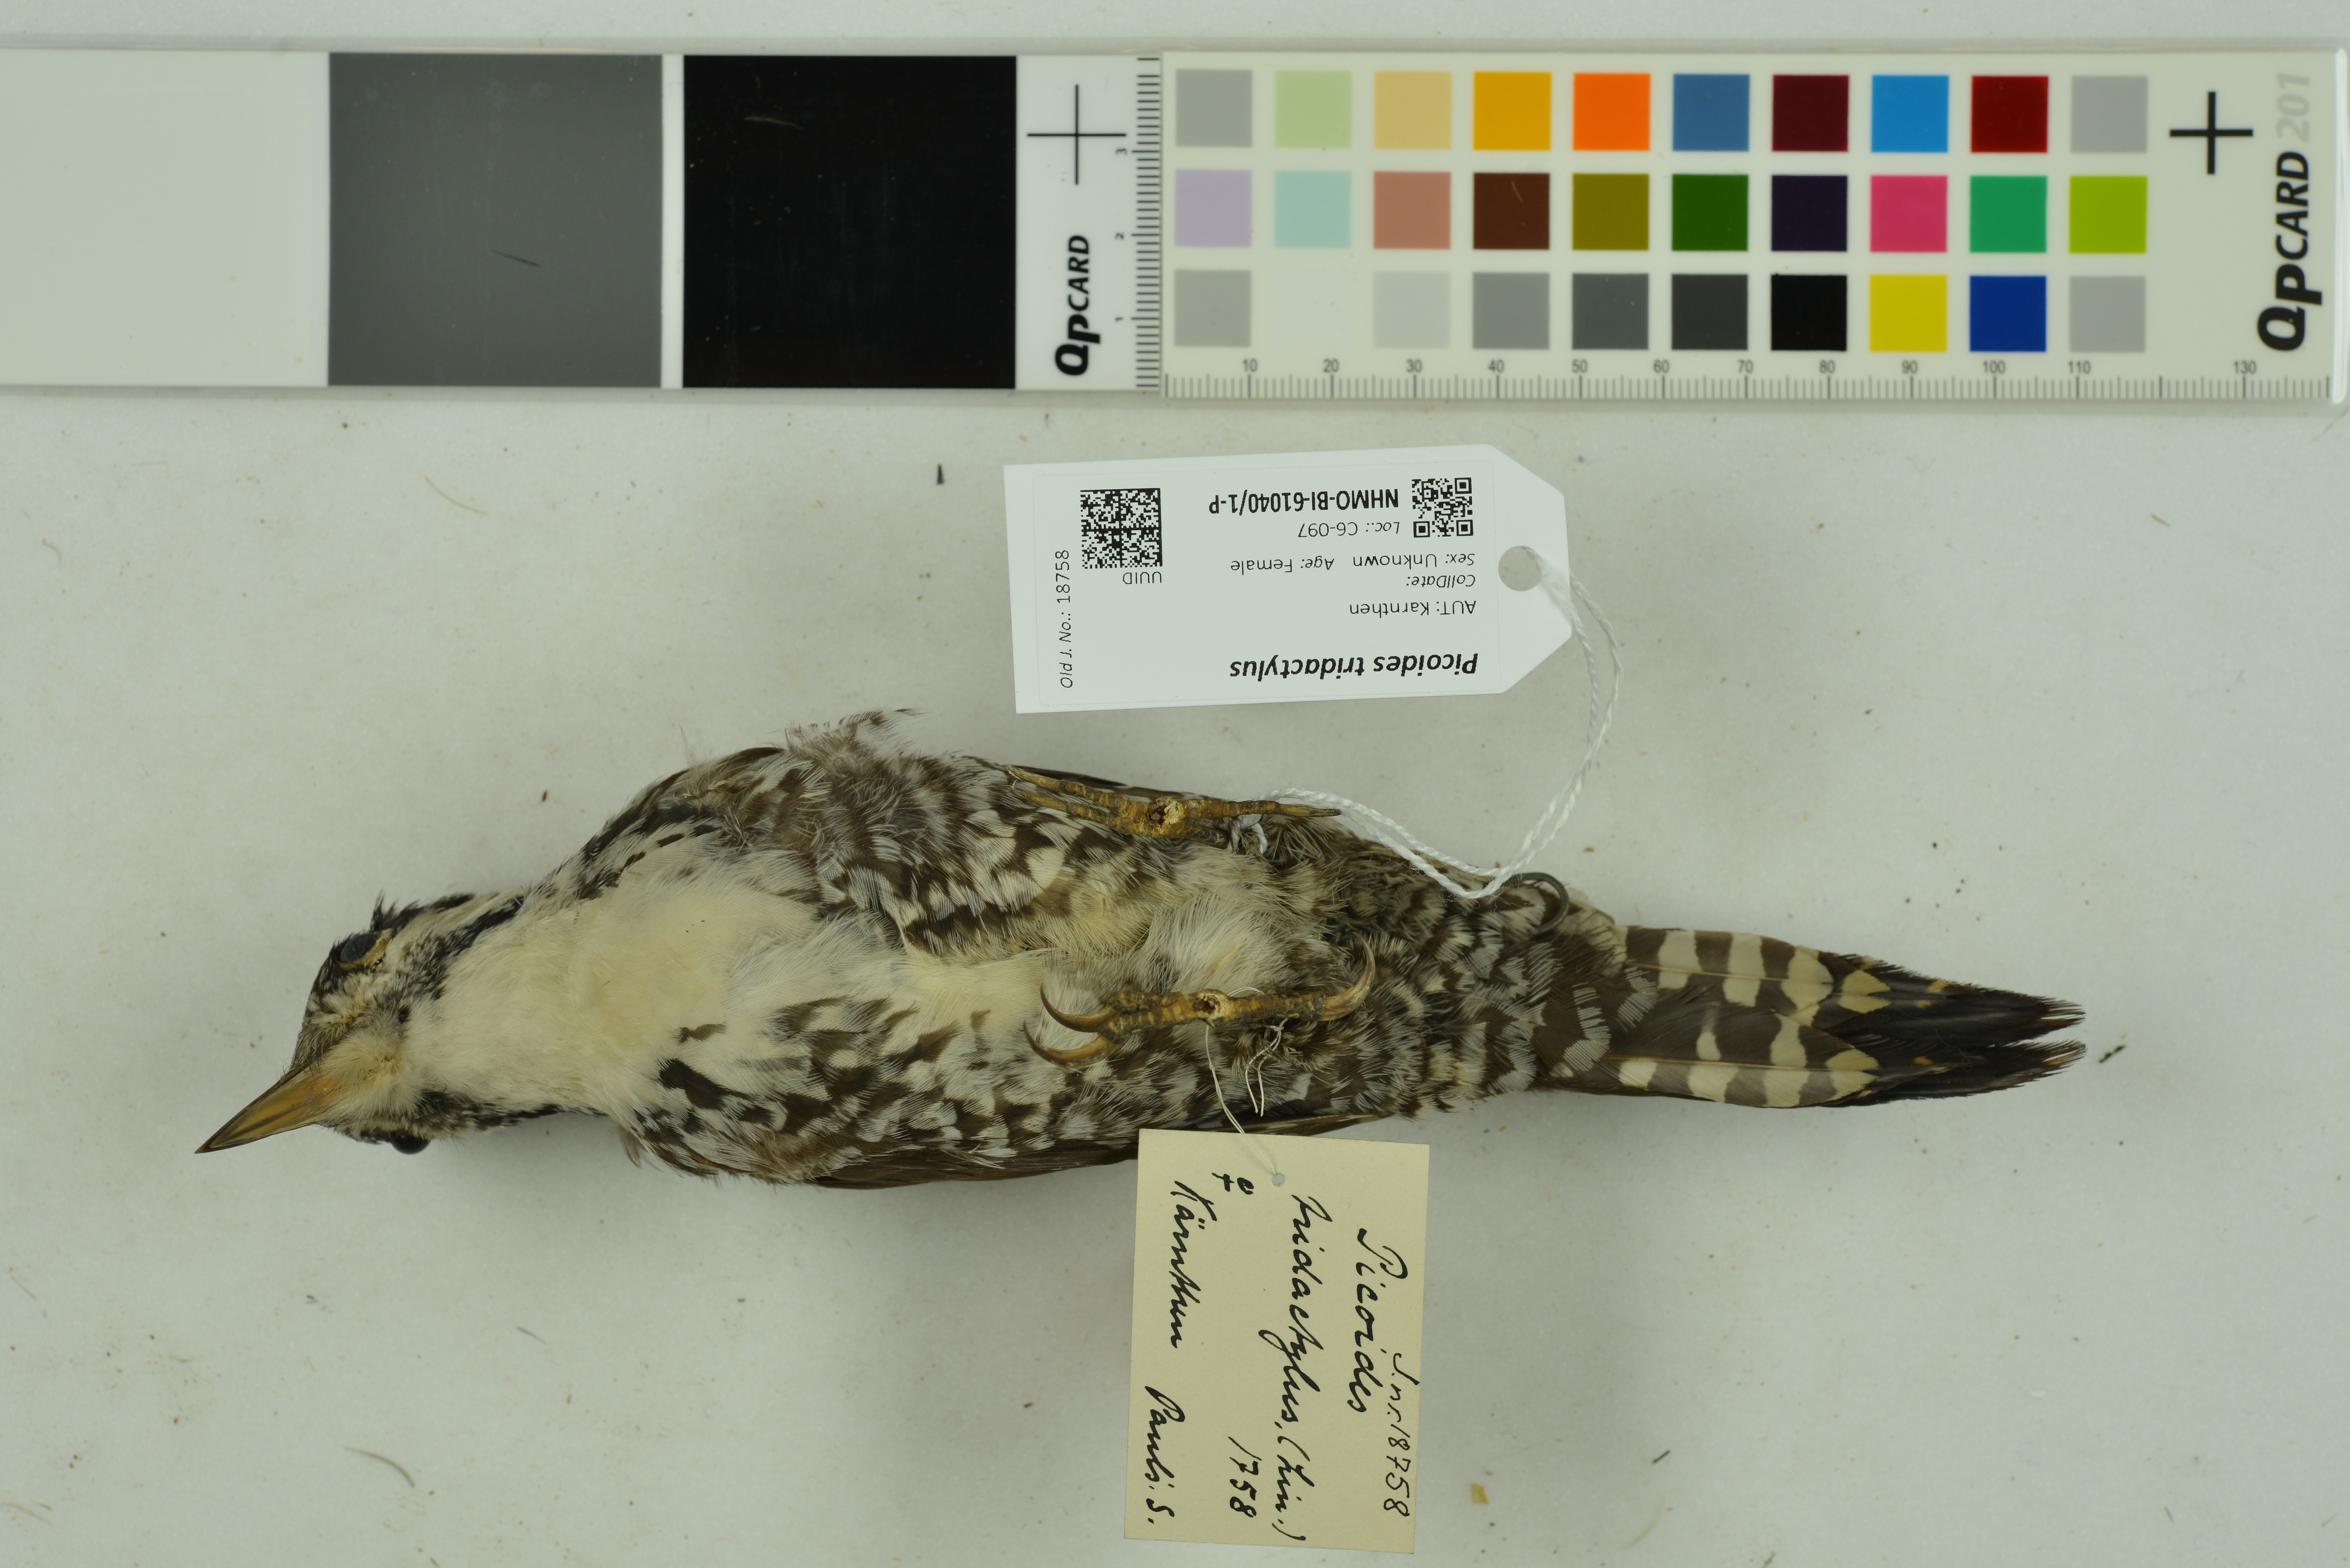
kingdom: Animalia
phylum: Chordata
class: Aves
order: Piciformes
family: Picidae
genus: Picoides
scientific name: Picoides tridactylus
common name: Eurasian three-toed woodpecker
